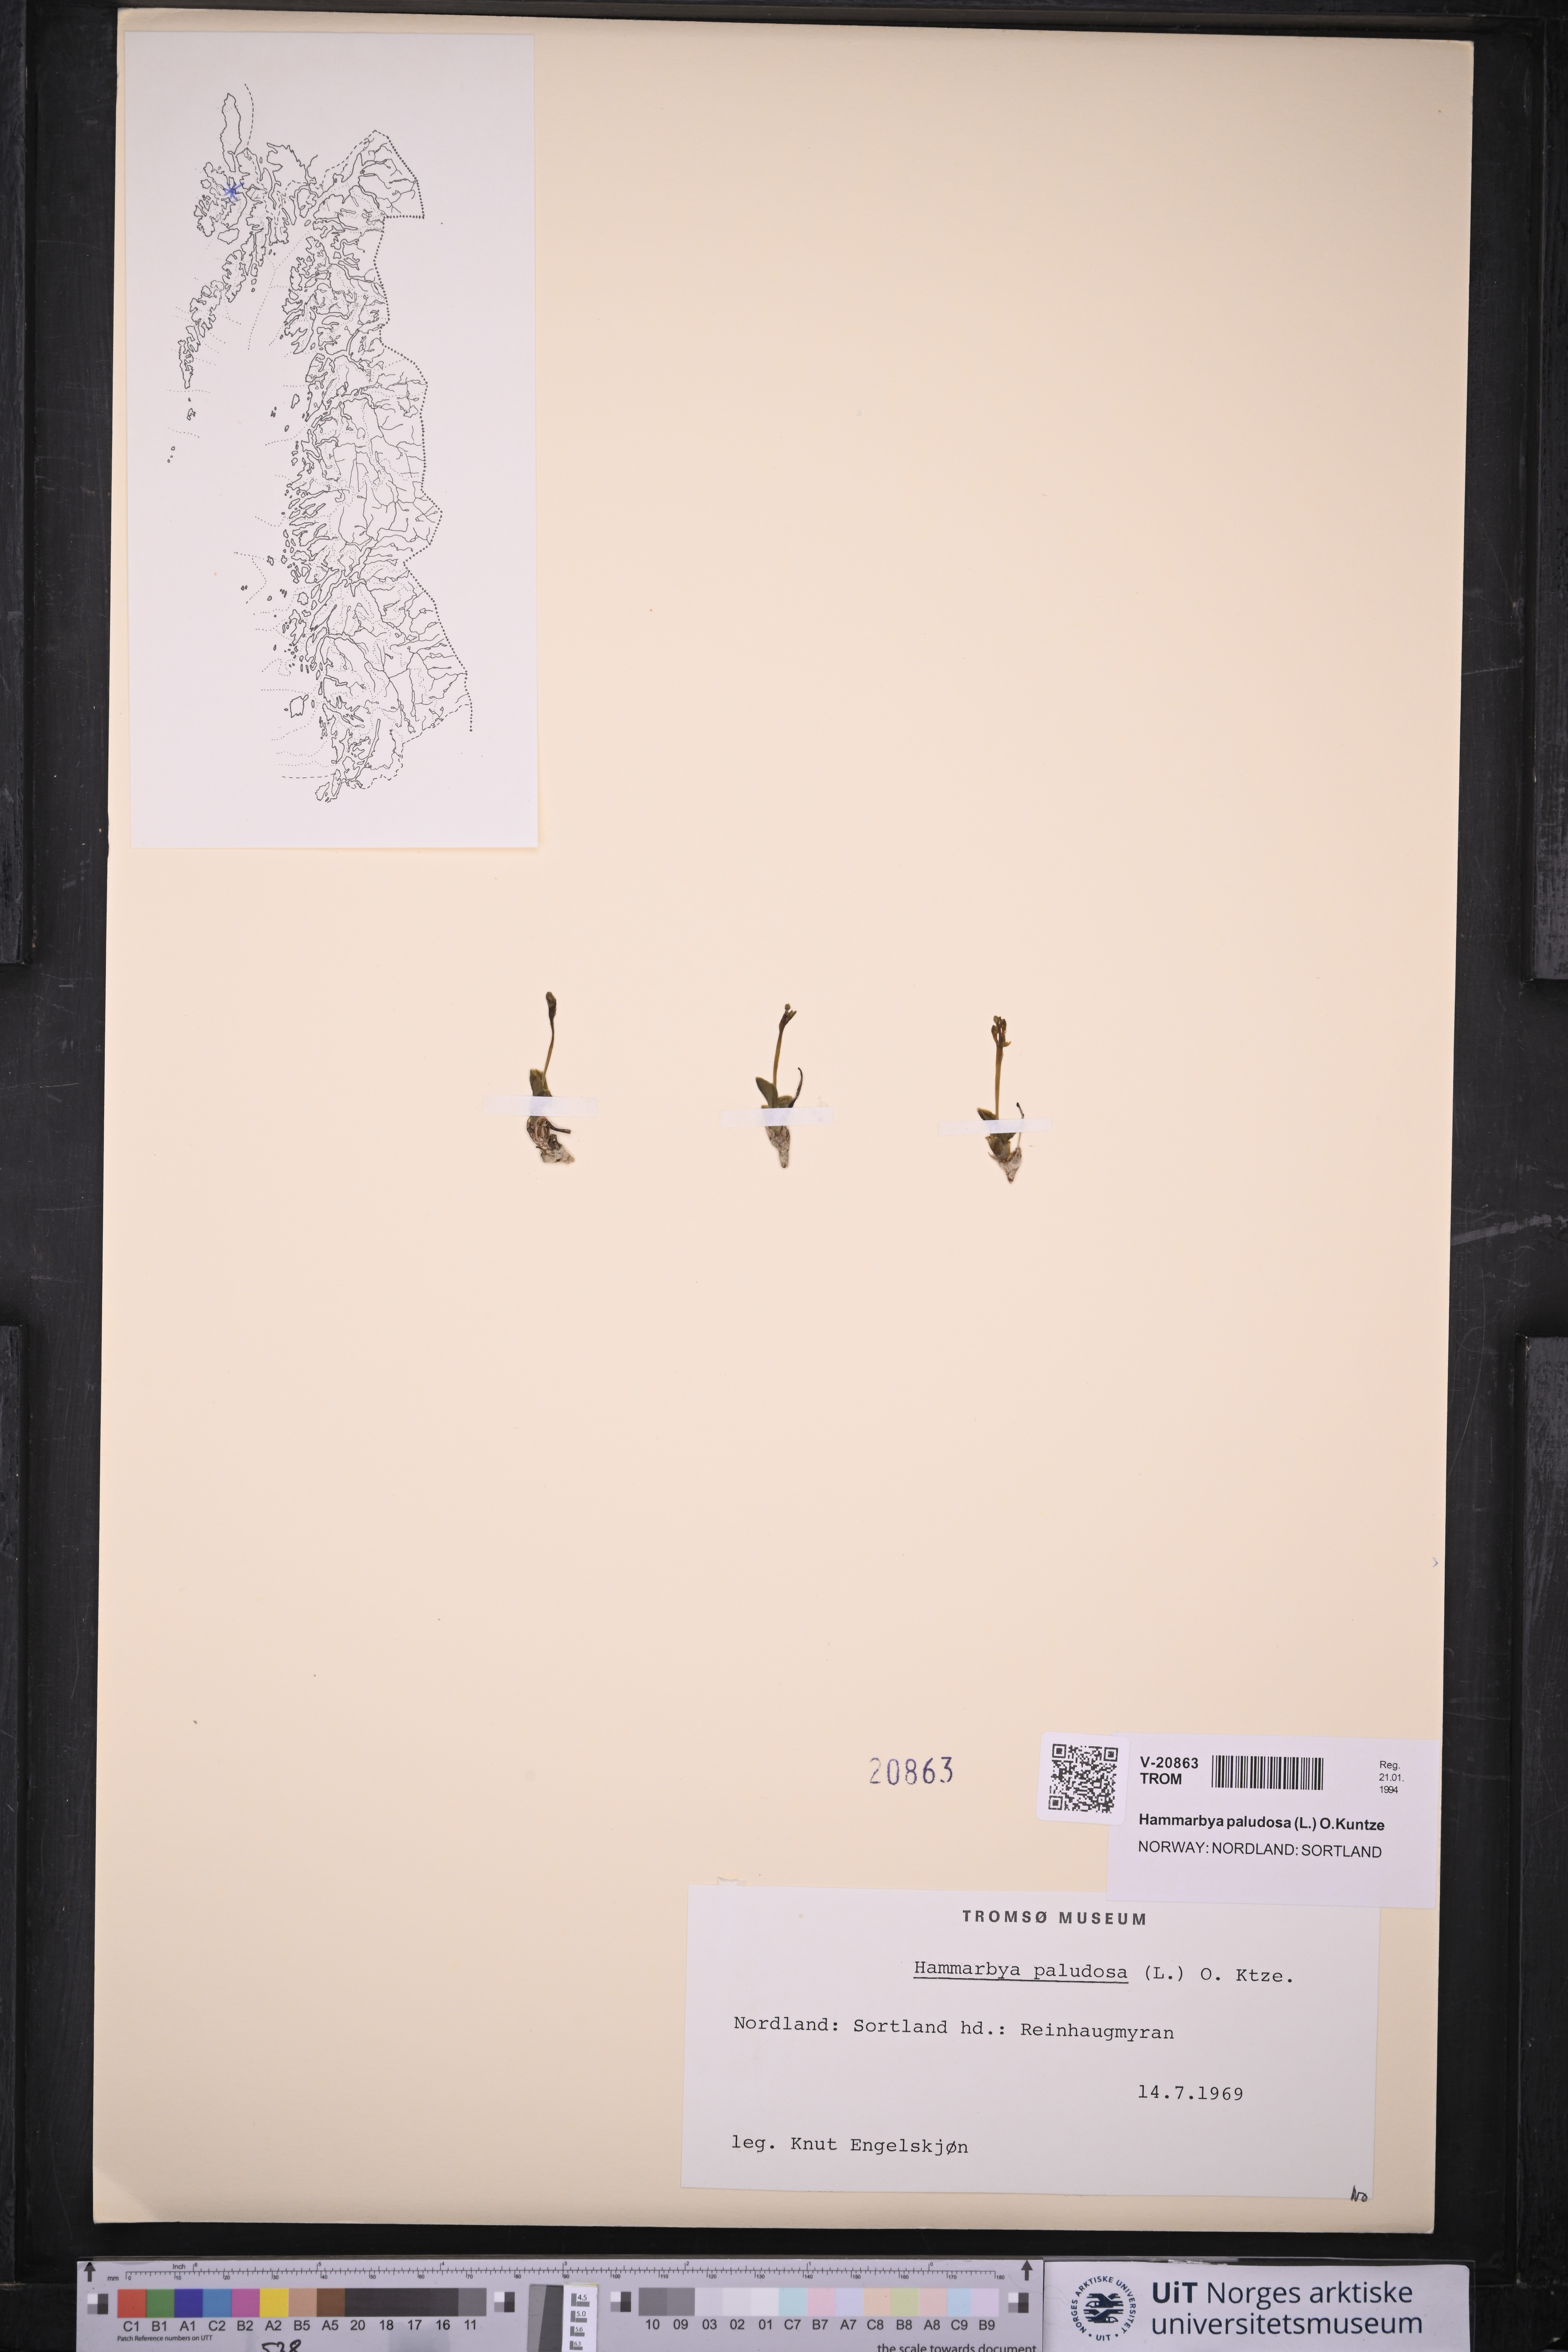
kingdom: Plantae
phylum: Tracheophyta
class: Liliopsida
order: Asparagales
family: Orchidaceae
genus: Hammarbya
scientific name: Hammarbya paludosa
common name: Bog orchid
